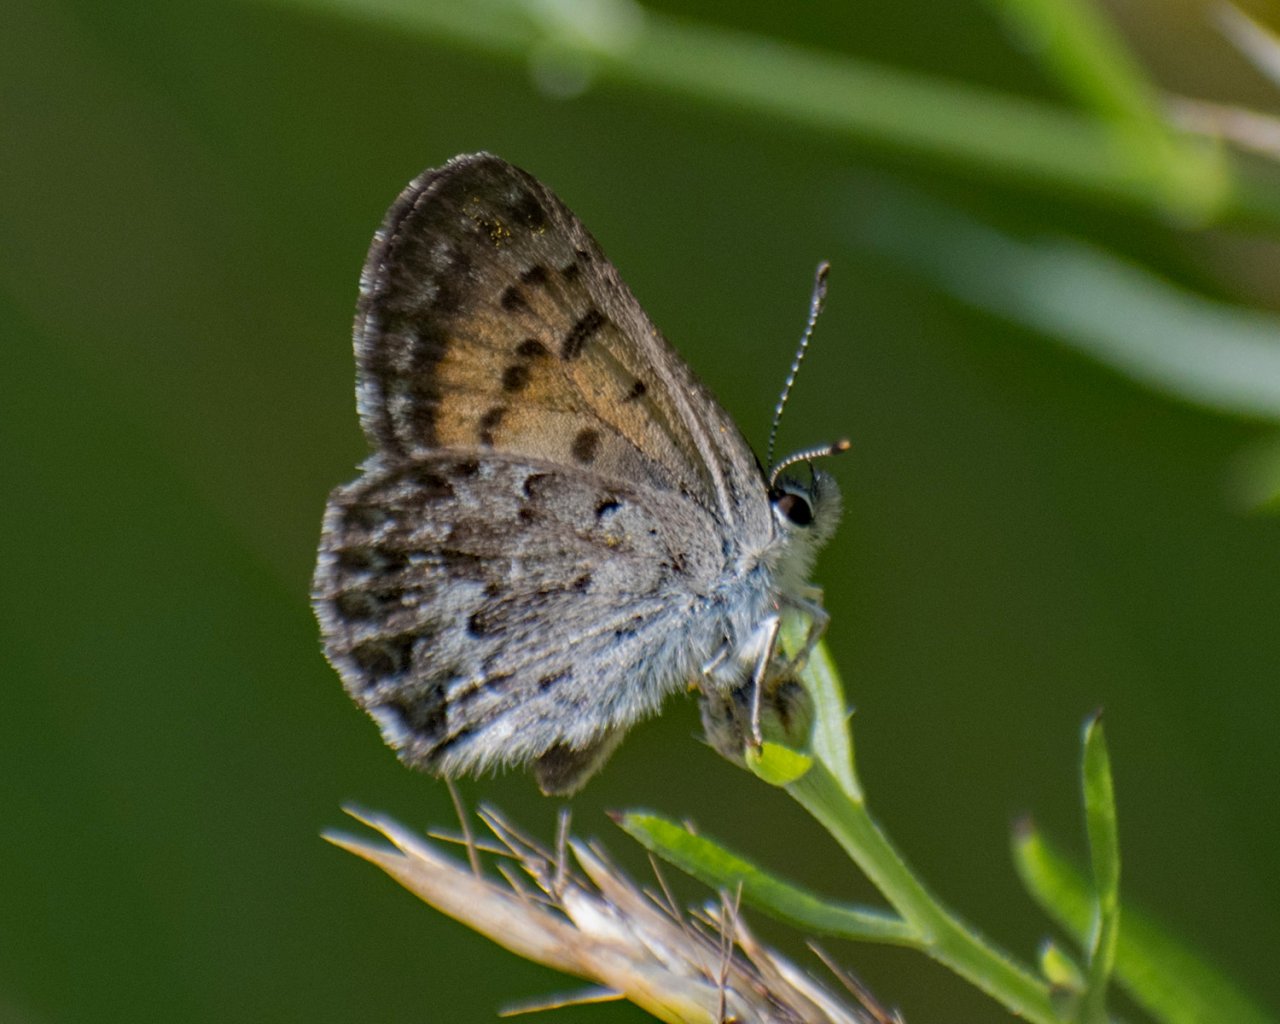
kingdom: Animalia
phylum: Arthropoda
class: Insecta
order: Lepidoptera
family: Lycaenidae
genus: Lycaena
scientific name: Lycaena mariposa
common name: Mariposa Copper
